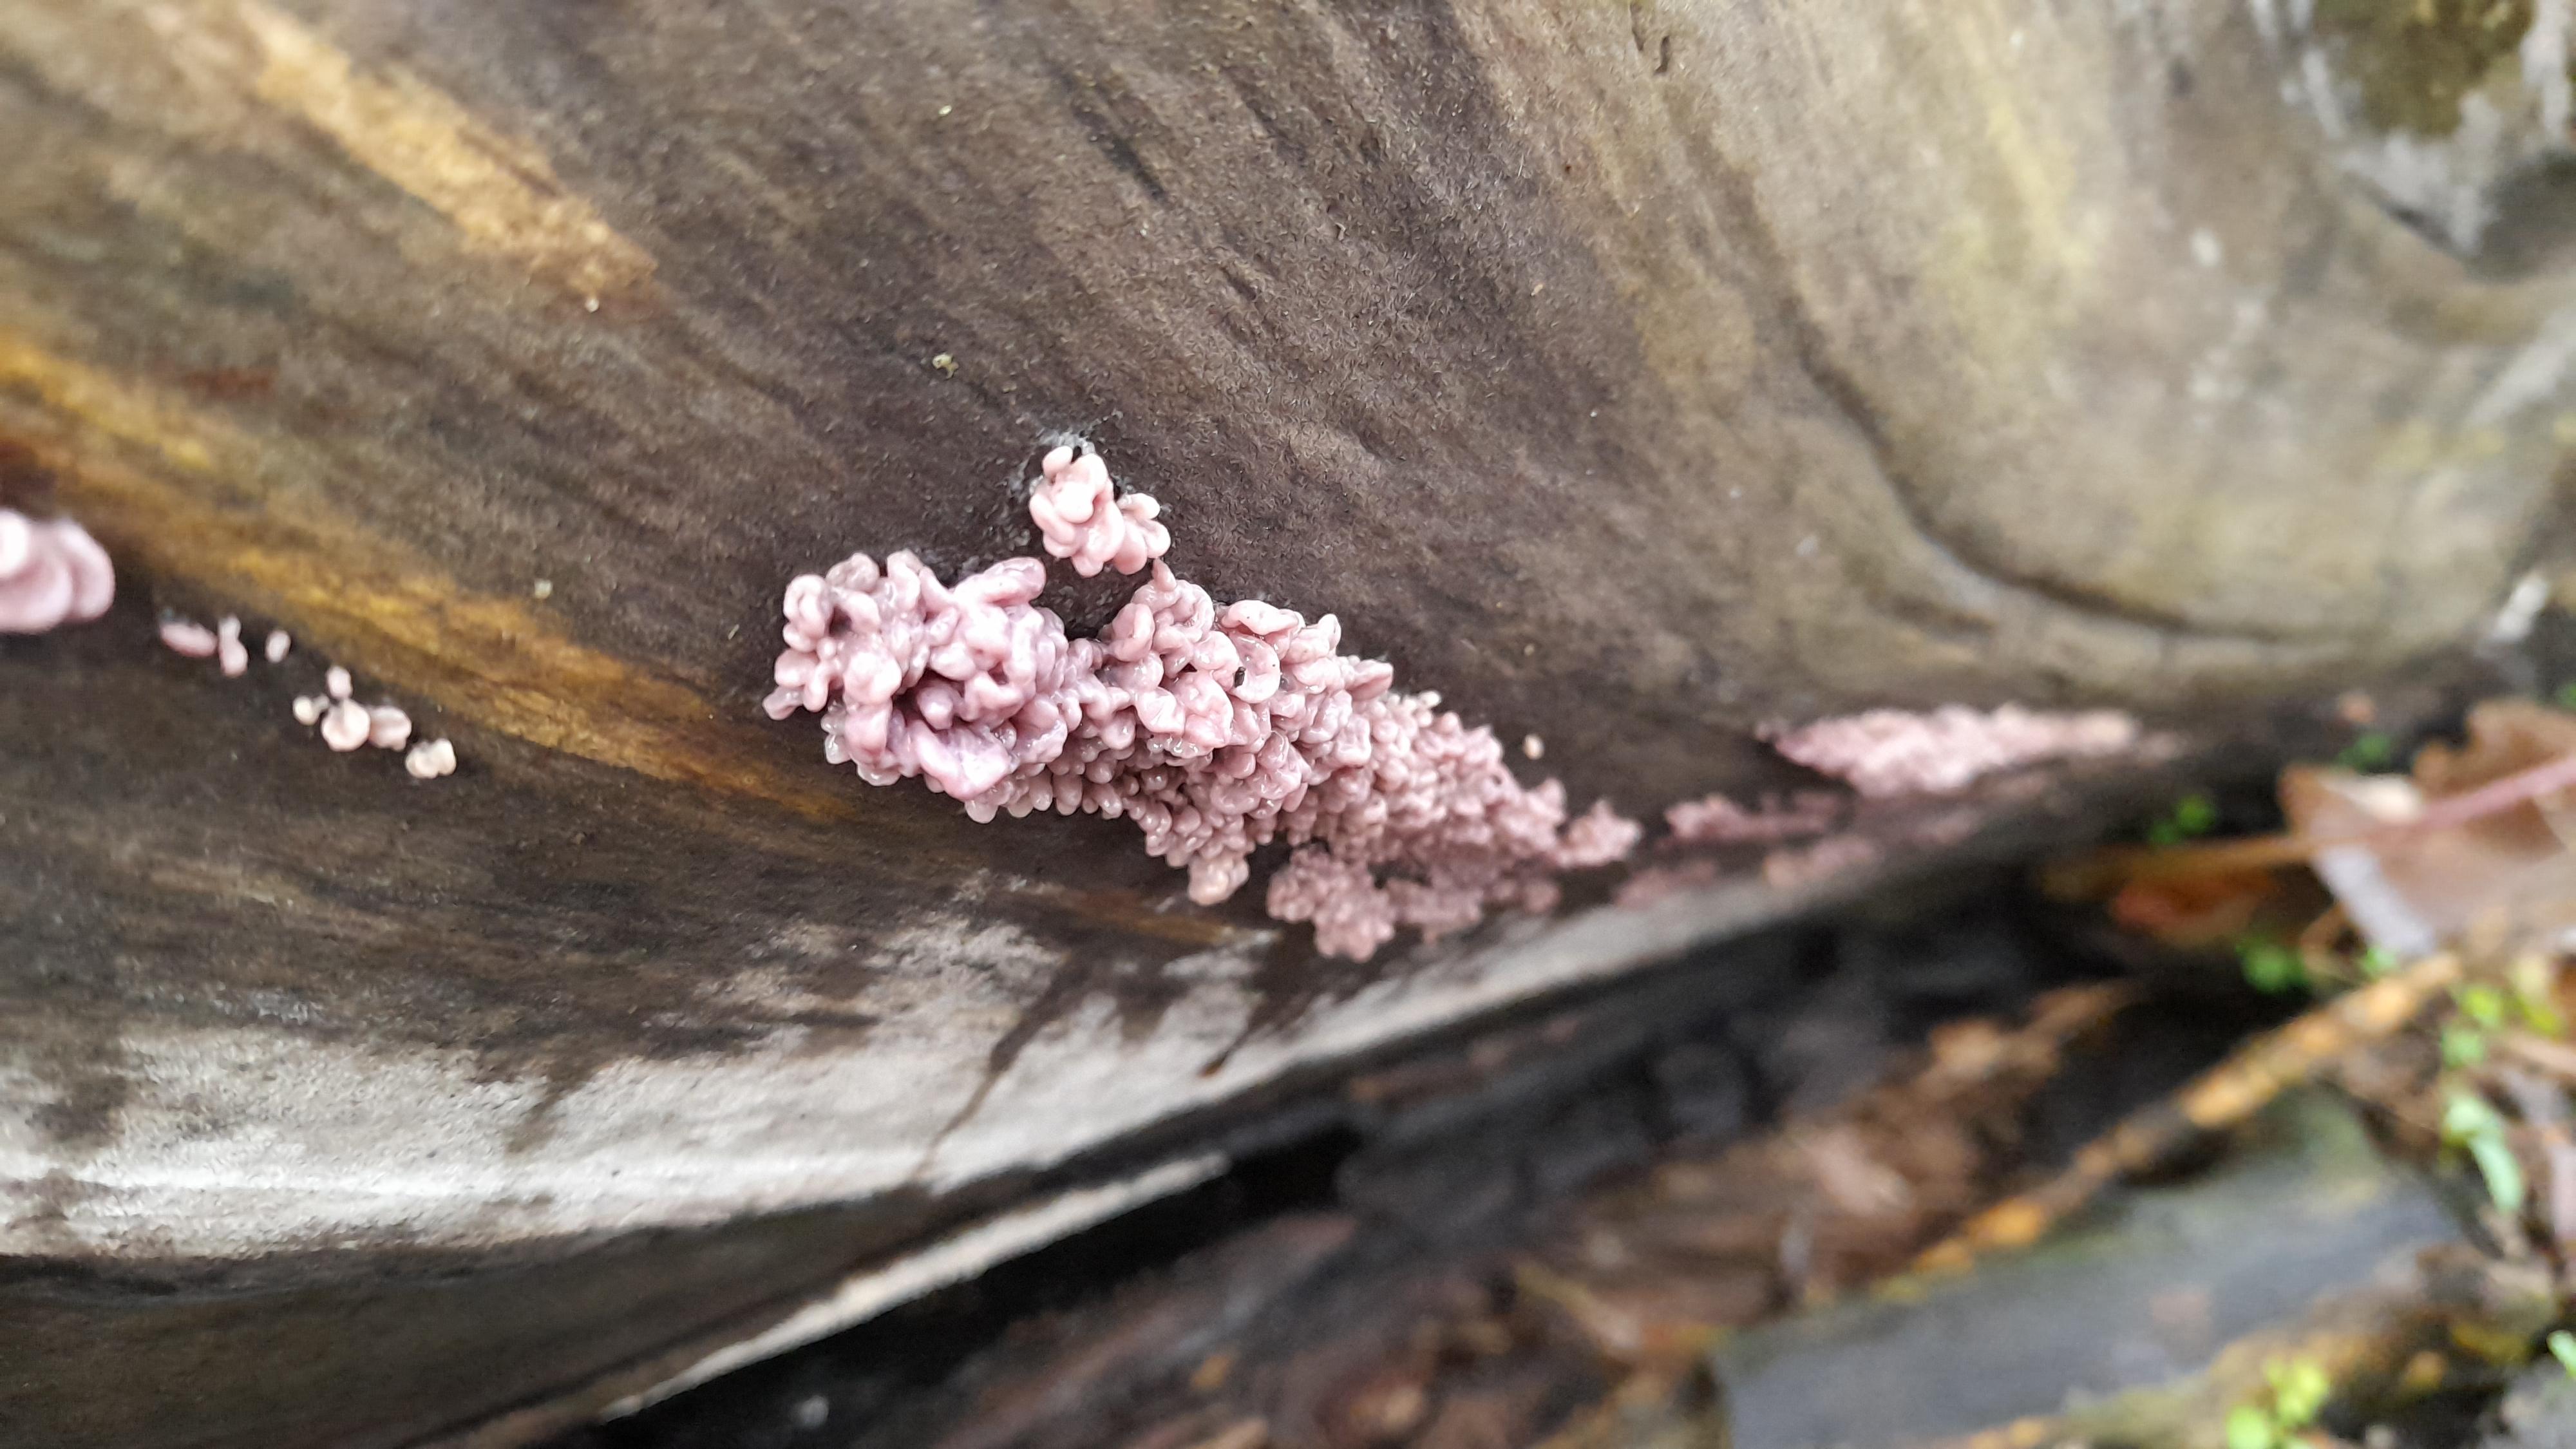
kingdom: Fungi
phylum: Ascomycota
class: Leotiomycetes
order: Helotiales
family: Gelatinodiscaceae
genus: Ascocoryne
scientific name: Ascocoryne sarcoides
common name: rødlilla sejskive
